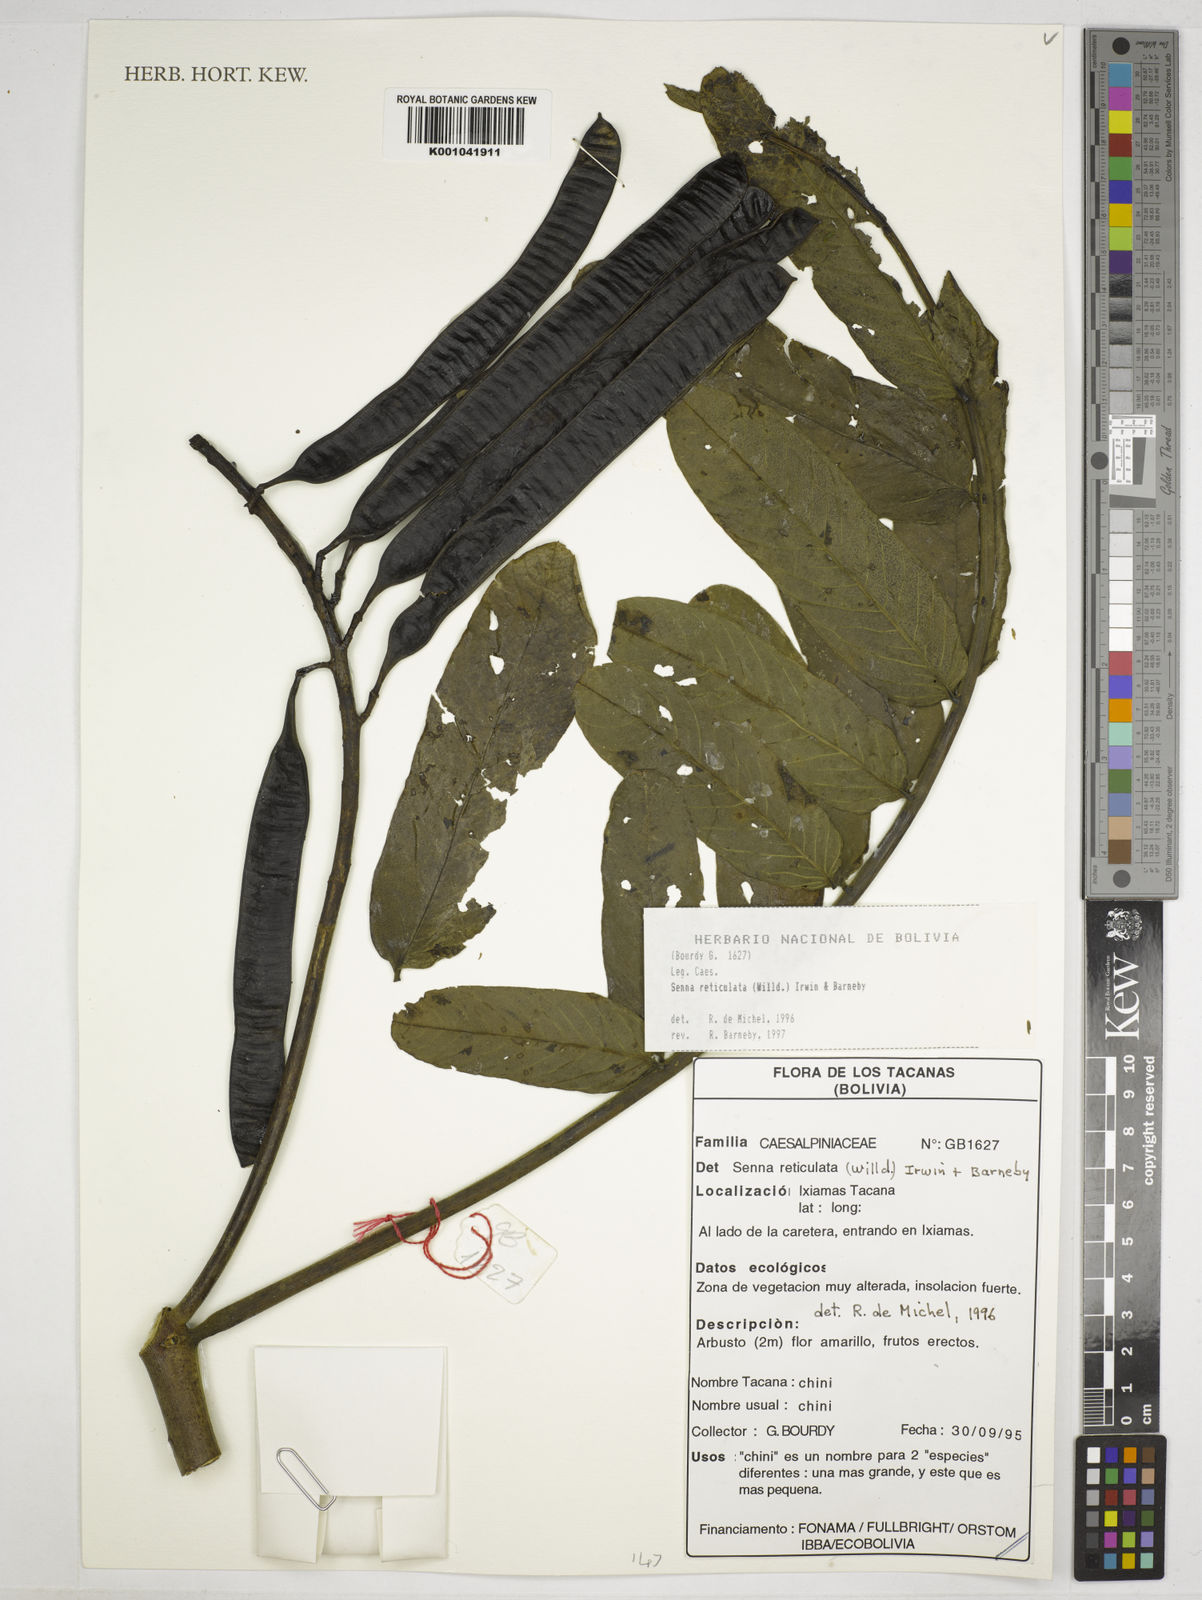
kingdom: Plantae
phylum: Tracheophyta
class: Magnoliopsida
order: Fabales
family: Fabaceae
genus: Senna
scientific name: Senna reticulata
